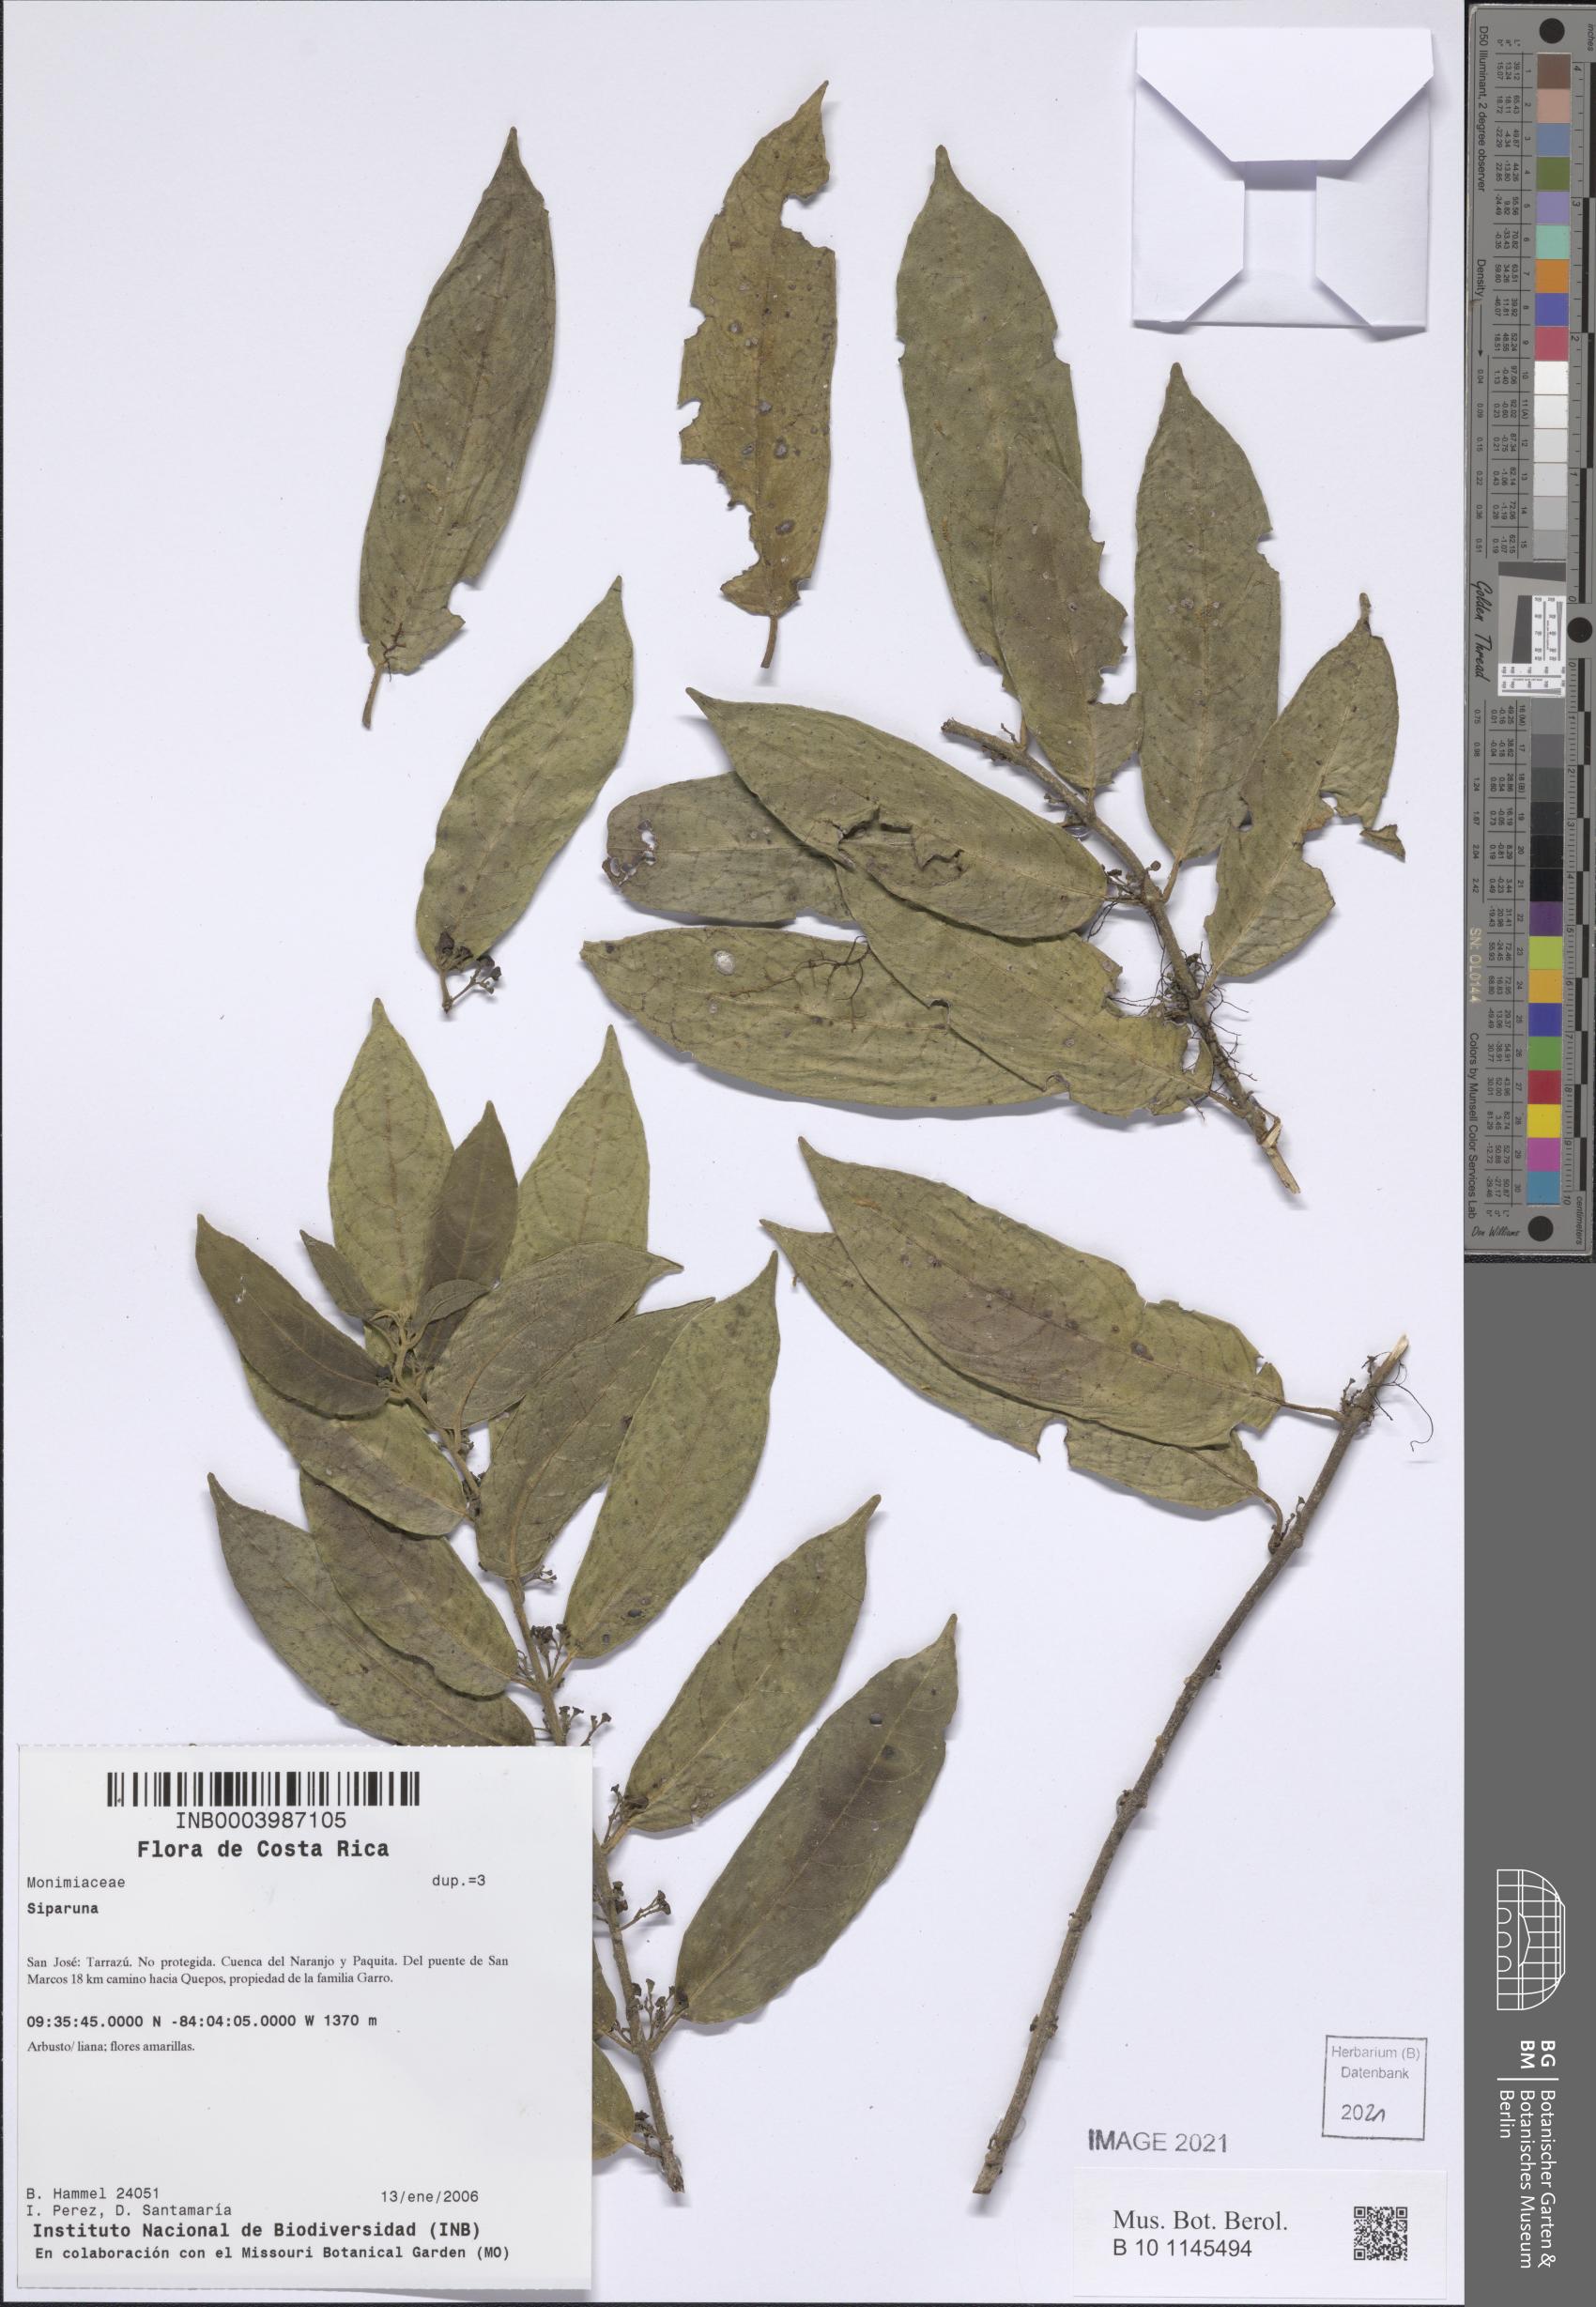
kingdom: Plantae
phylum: Tracheophyta
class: Magnoliopsida
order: Laurales
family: Siparunaceae
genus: Siparuna
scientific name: Siparuna
